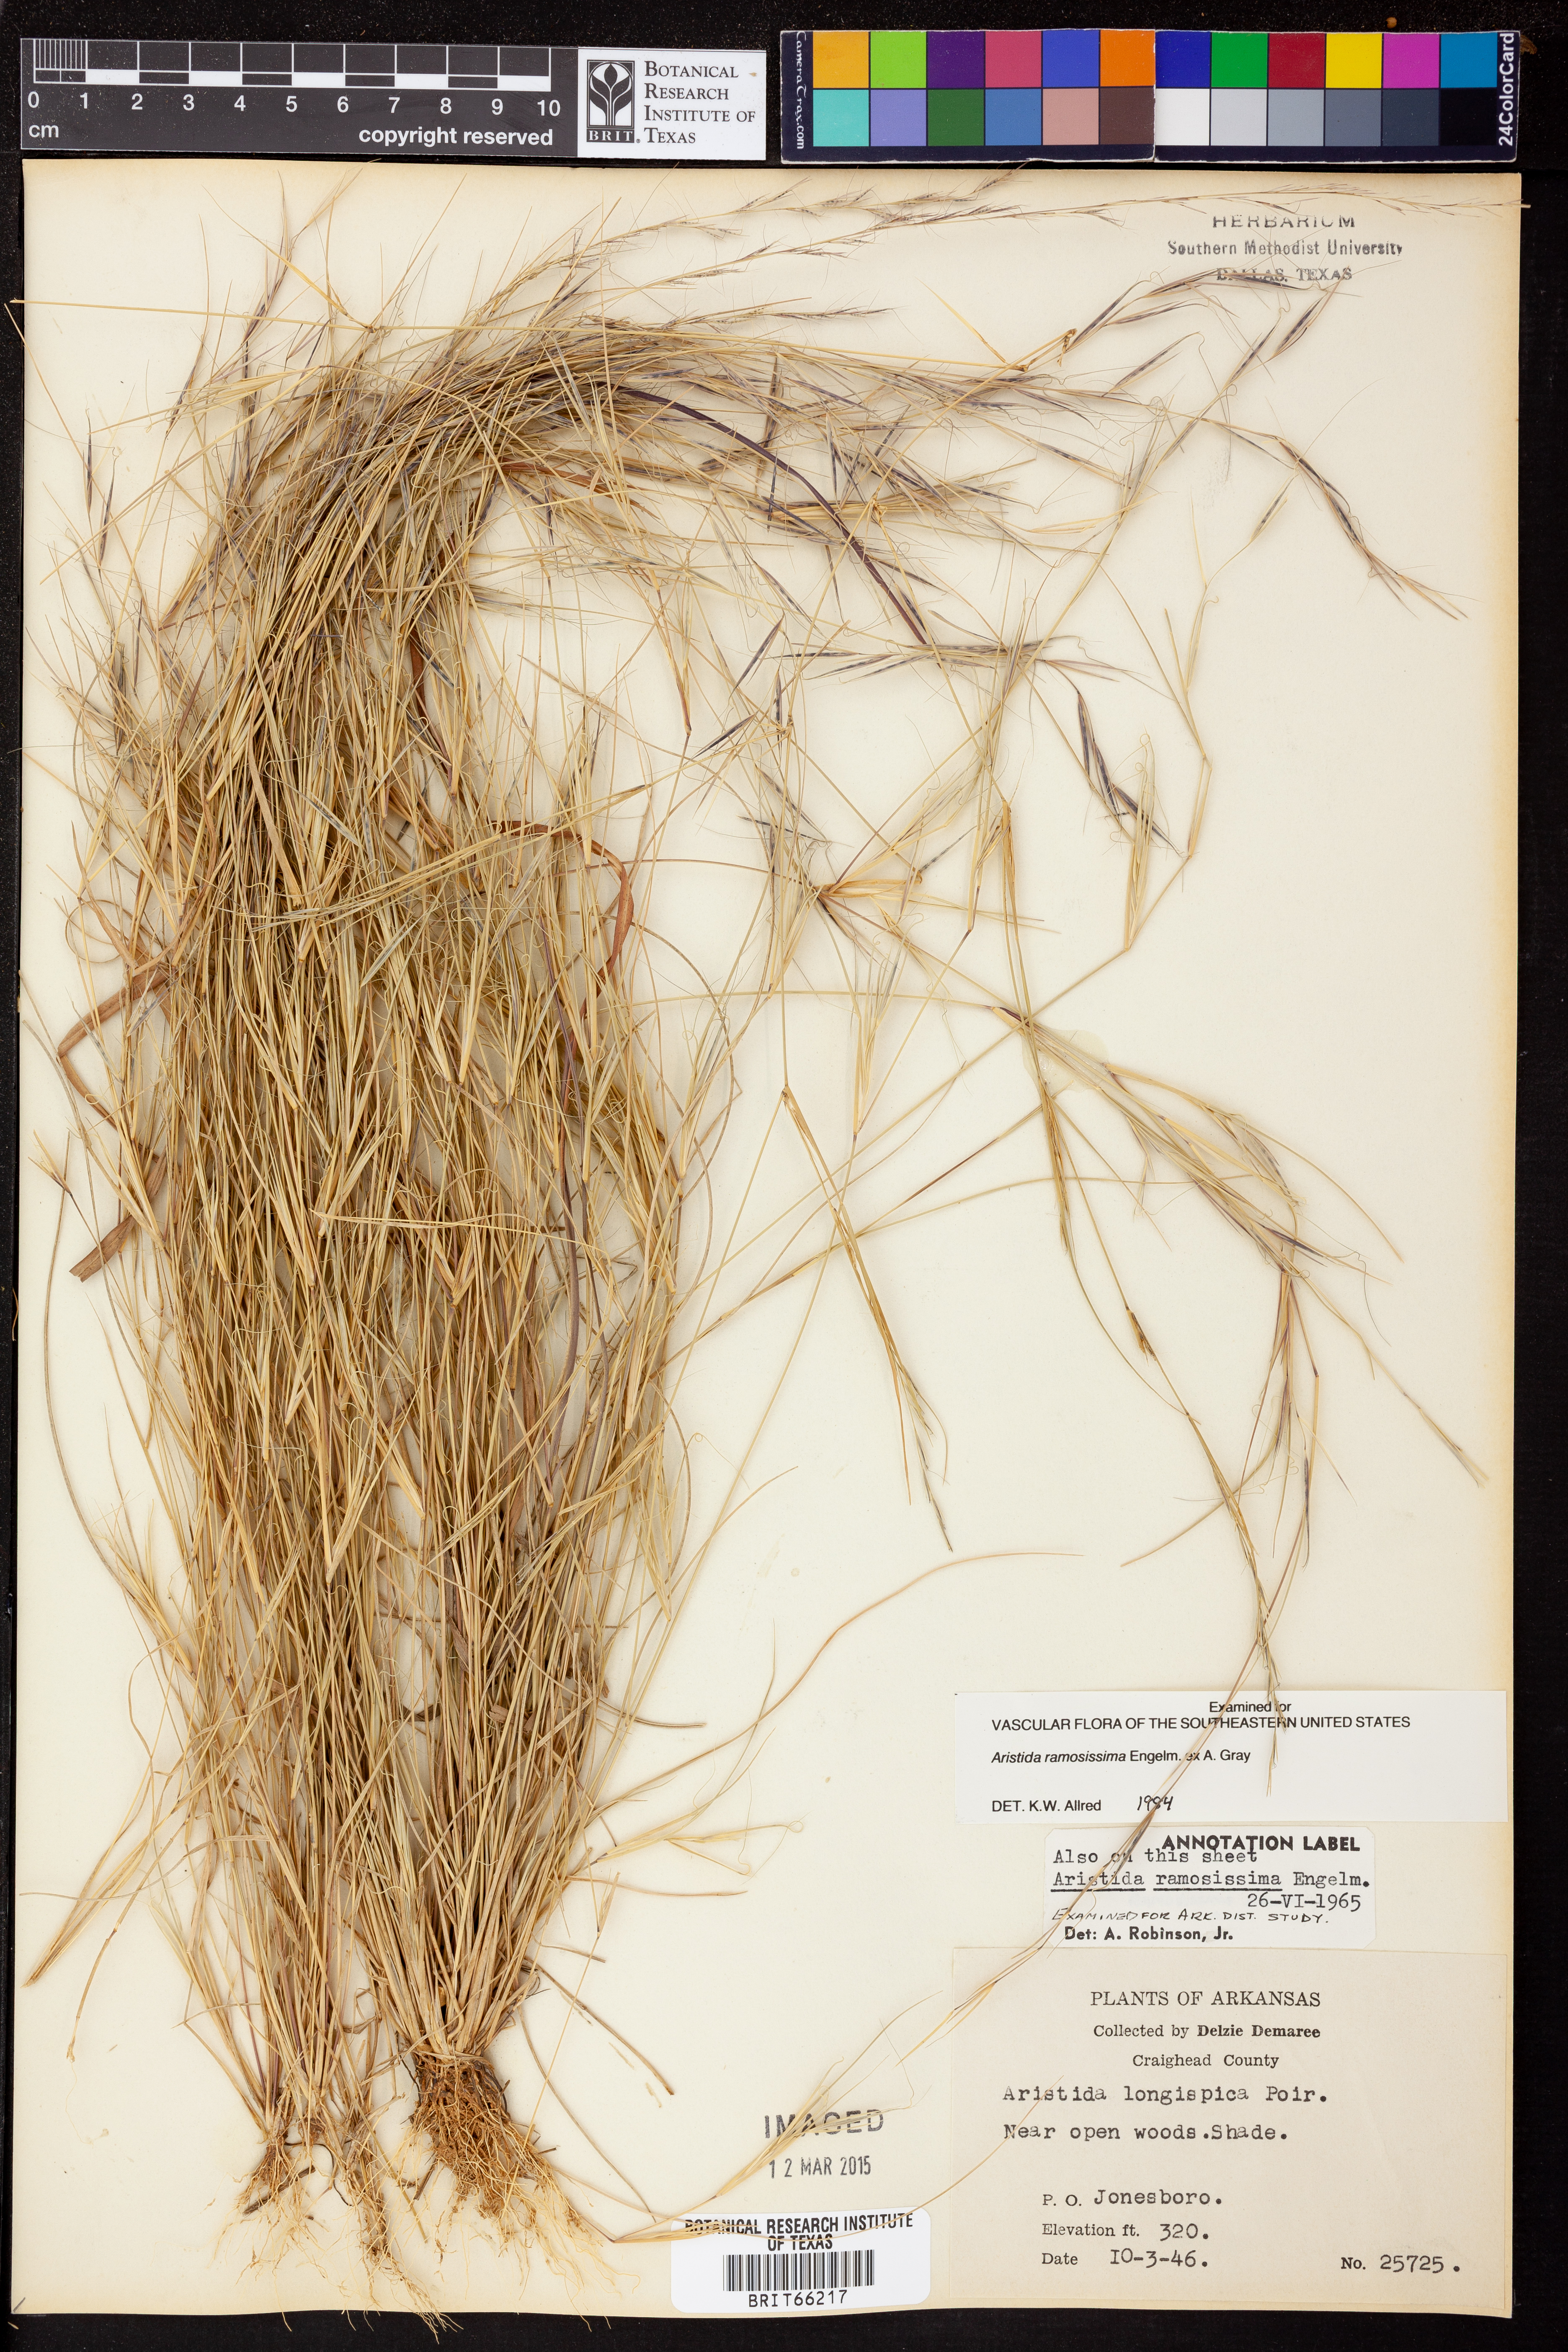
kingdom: Plantae
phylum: Tracheophyta
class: Liliopsida
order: Poales
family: Poaceae
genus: Aristida
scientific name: Aristida ramosissima
